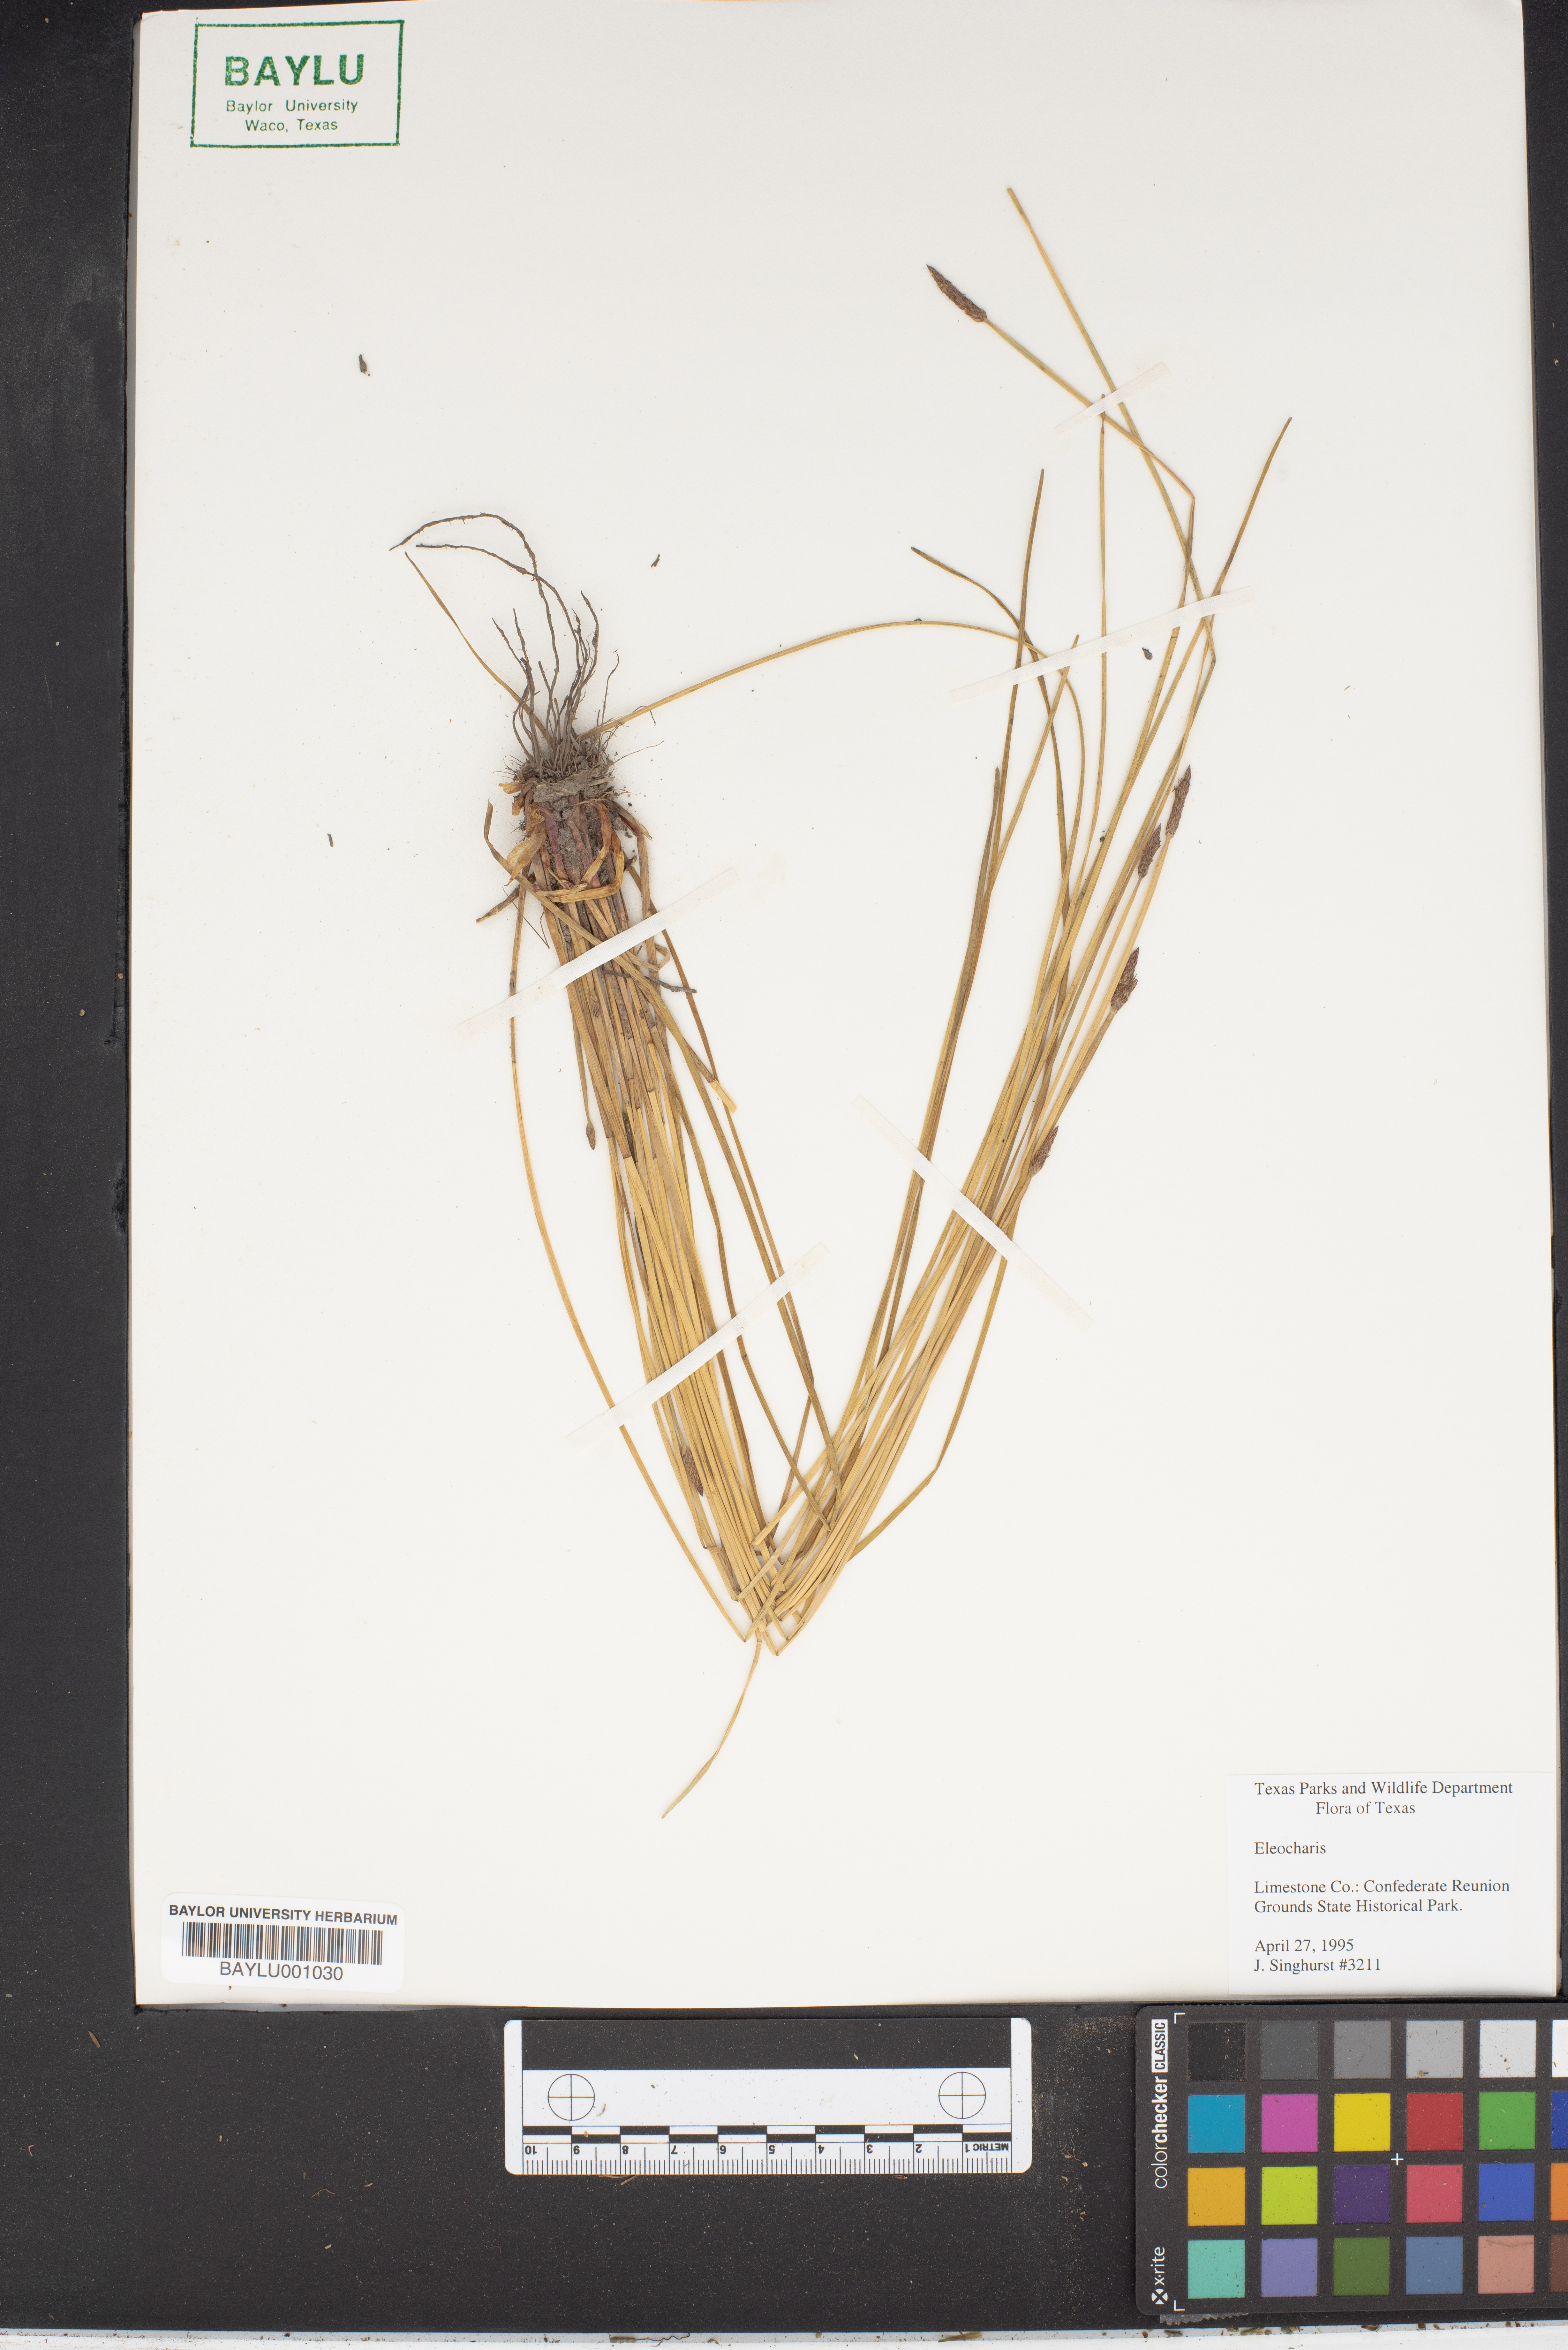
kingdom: Plantae
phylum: Tracheophyta
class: Liliopsida
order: Poales
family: Cyperaceae
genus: Eleocharis
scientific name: Eleocharis
